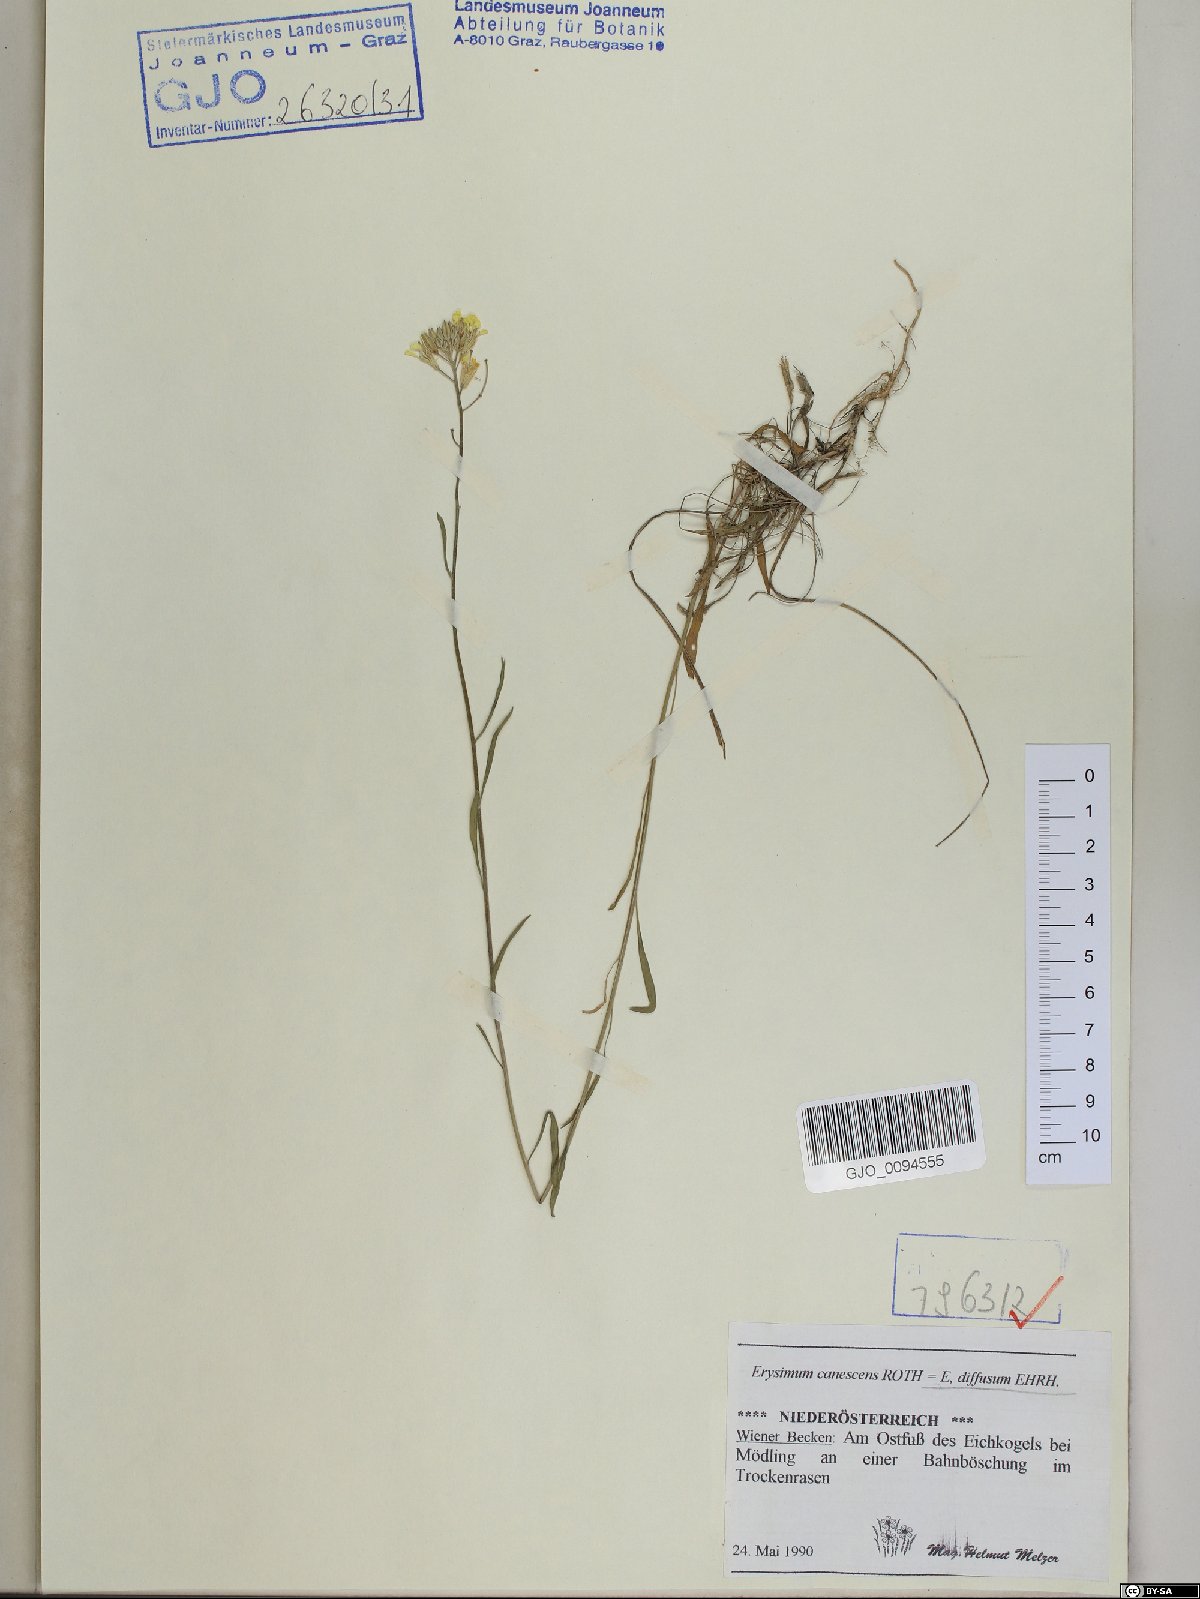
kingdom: Plantae
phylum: Tracheophyta
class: Magnoliopsida
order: Brassicales
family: Brassicaceae
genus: Erysimum
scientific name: Erysimum diffusum
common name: Diffuse wallflower
